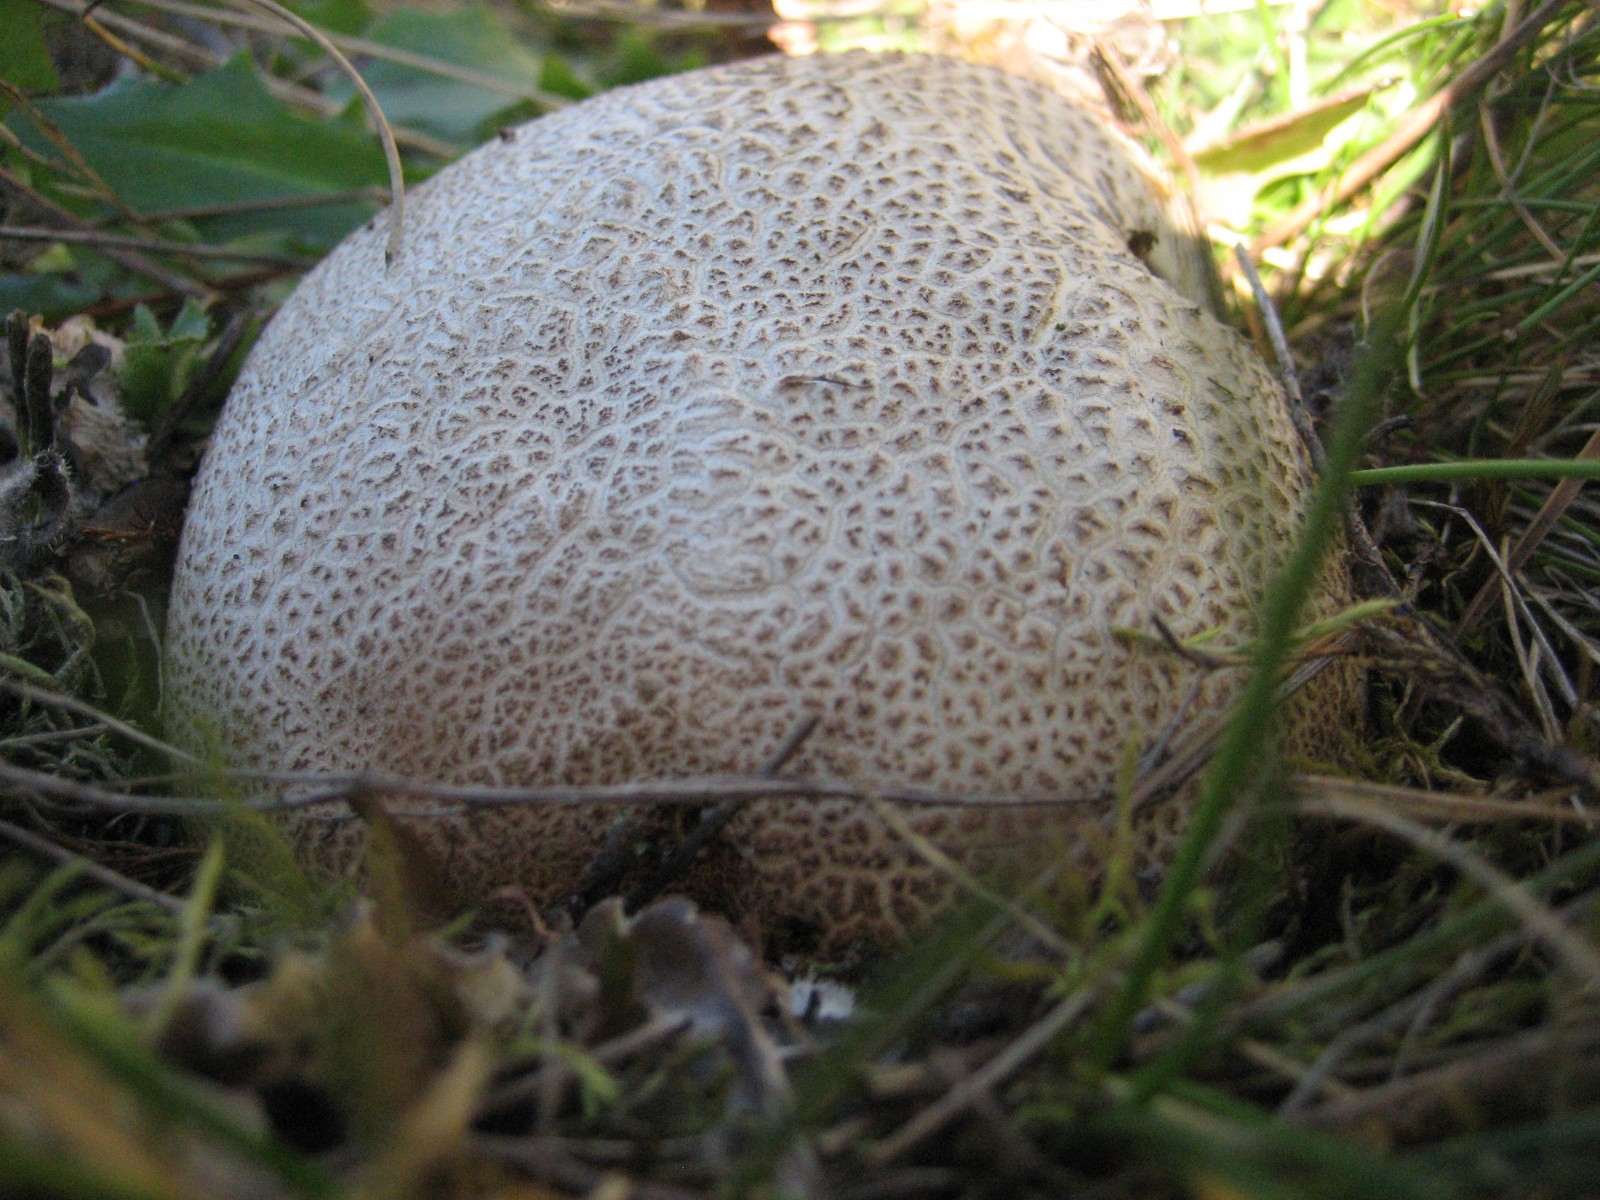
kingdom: Fungi
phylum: Basidiomycota
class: Agaricomycetes
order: Boletales
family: Sclerodermataceae
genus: Scleroderma
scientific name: Scleroderma citrinum
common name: almindelig bruskbold
